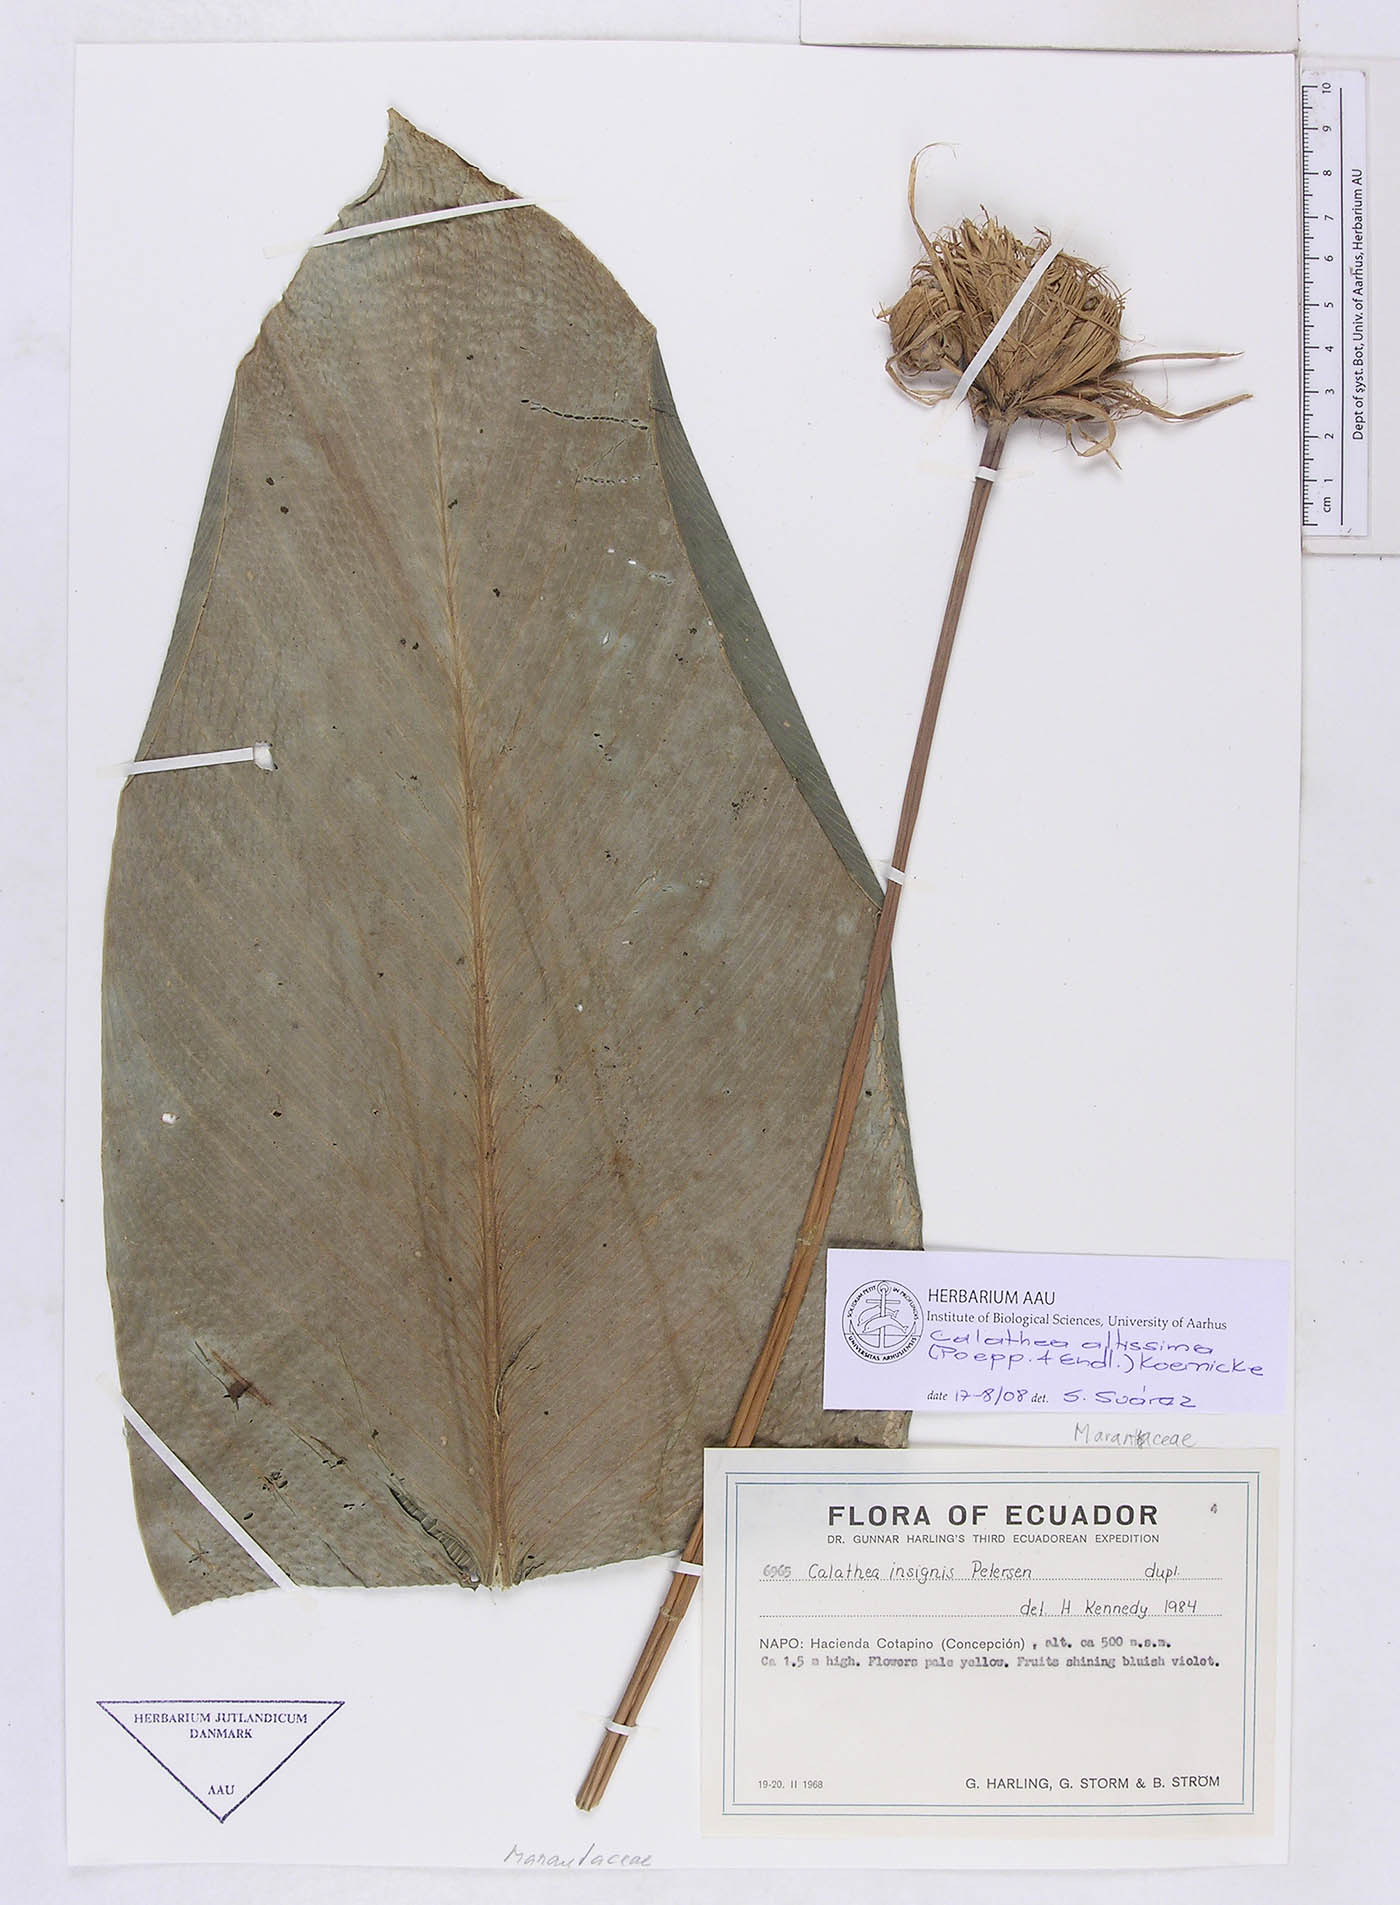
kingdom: Plantae
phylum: Tracheophyta
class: Liliopsida
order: Zingiberales
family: Marantaceae
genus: Goeppertia
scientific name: Goeppertia altissima
